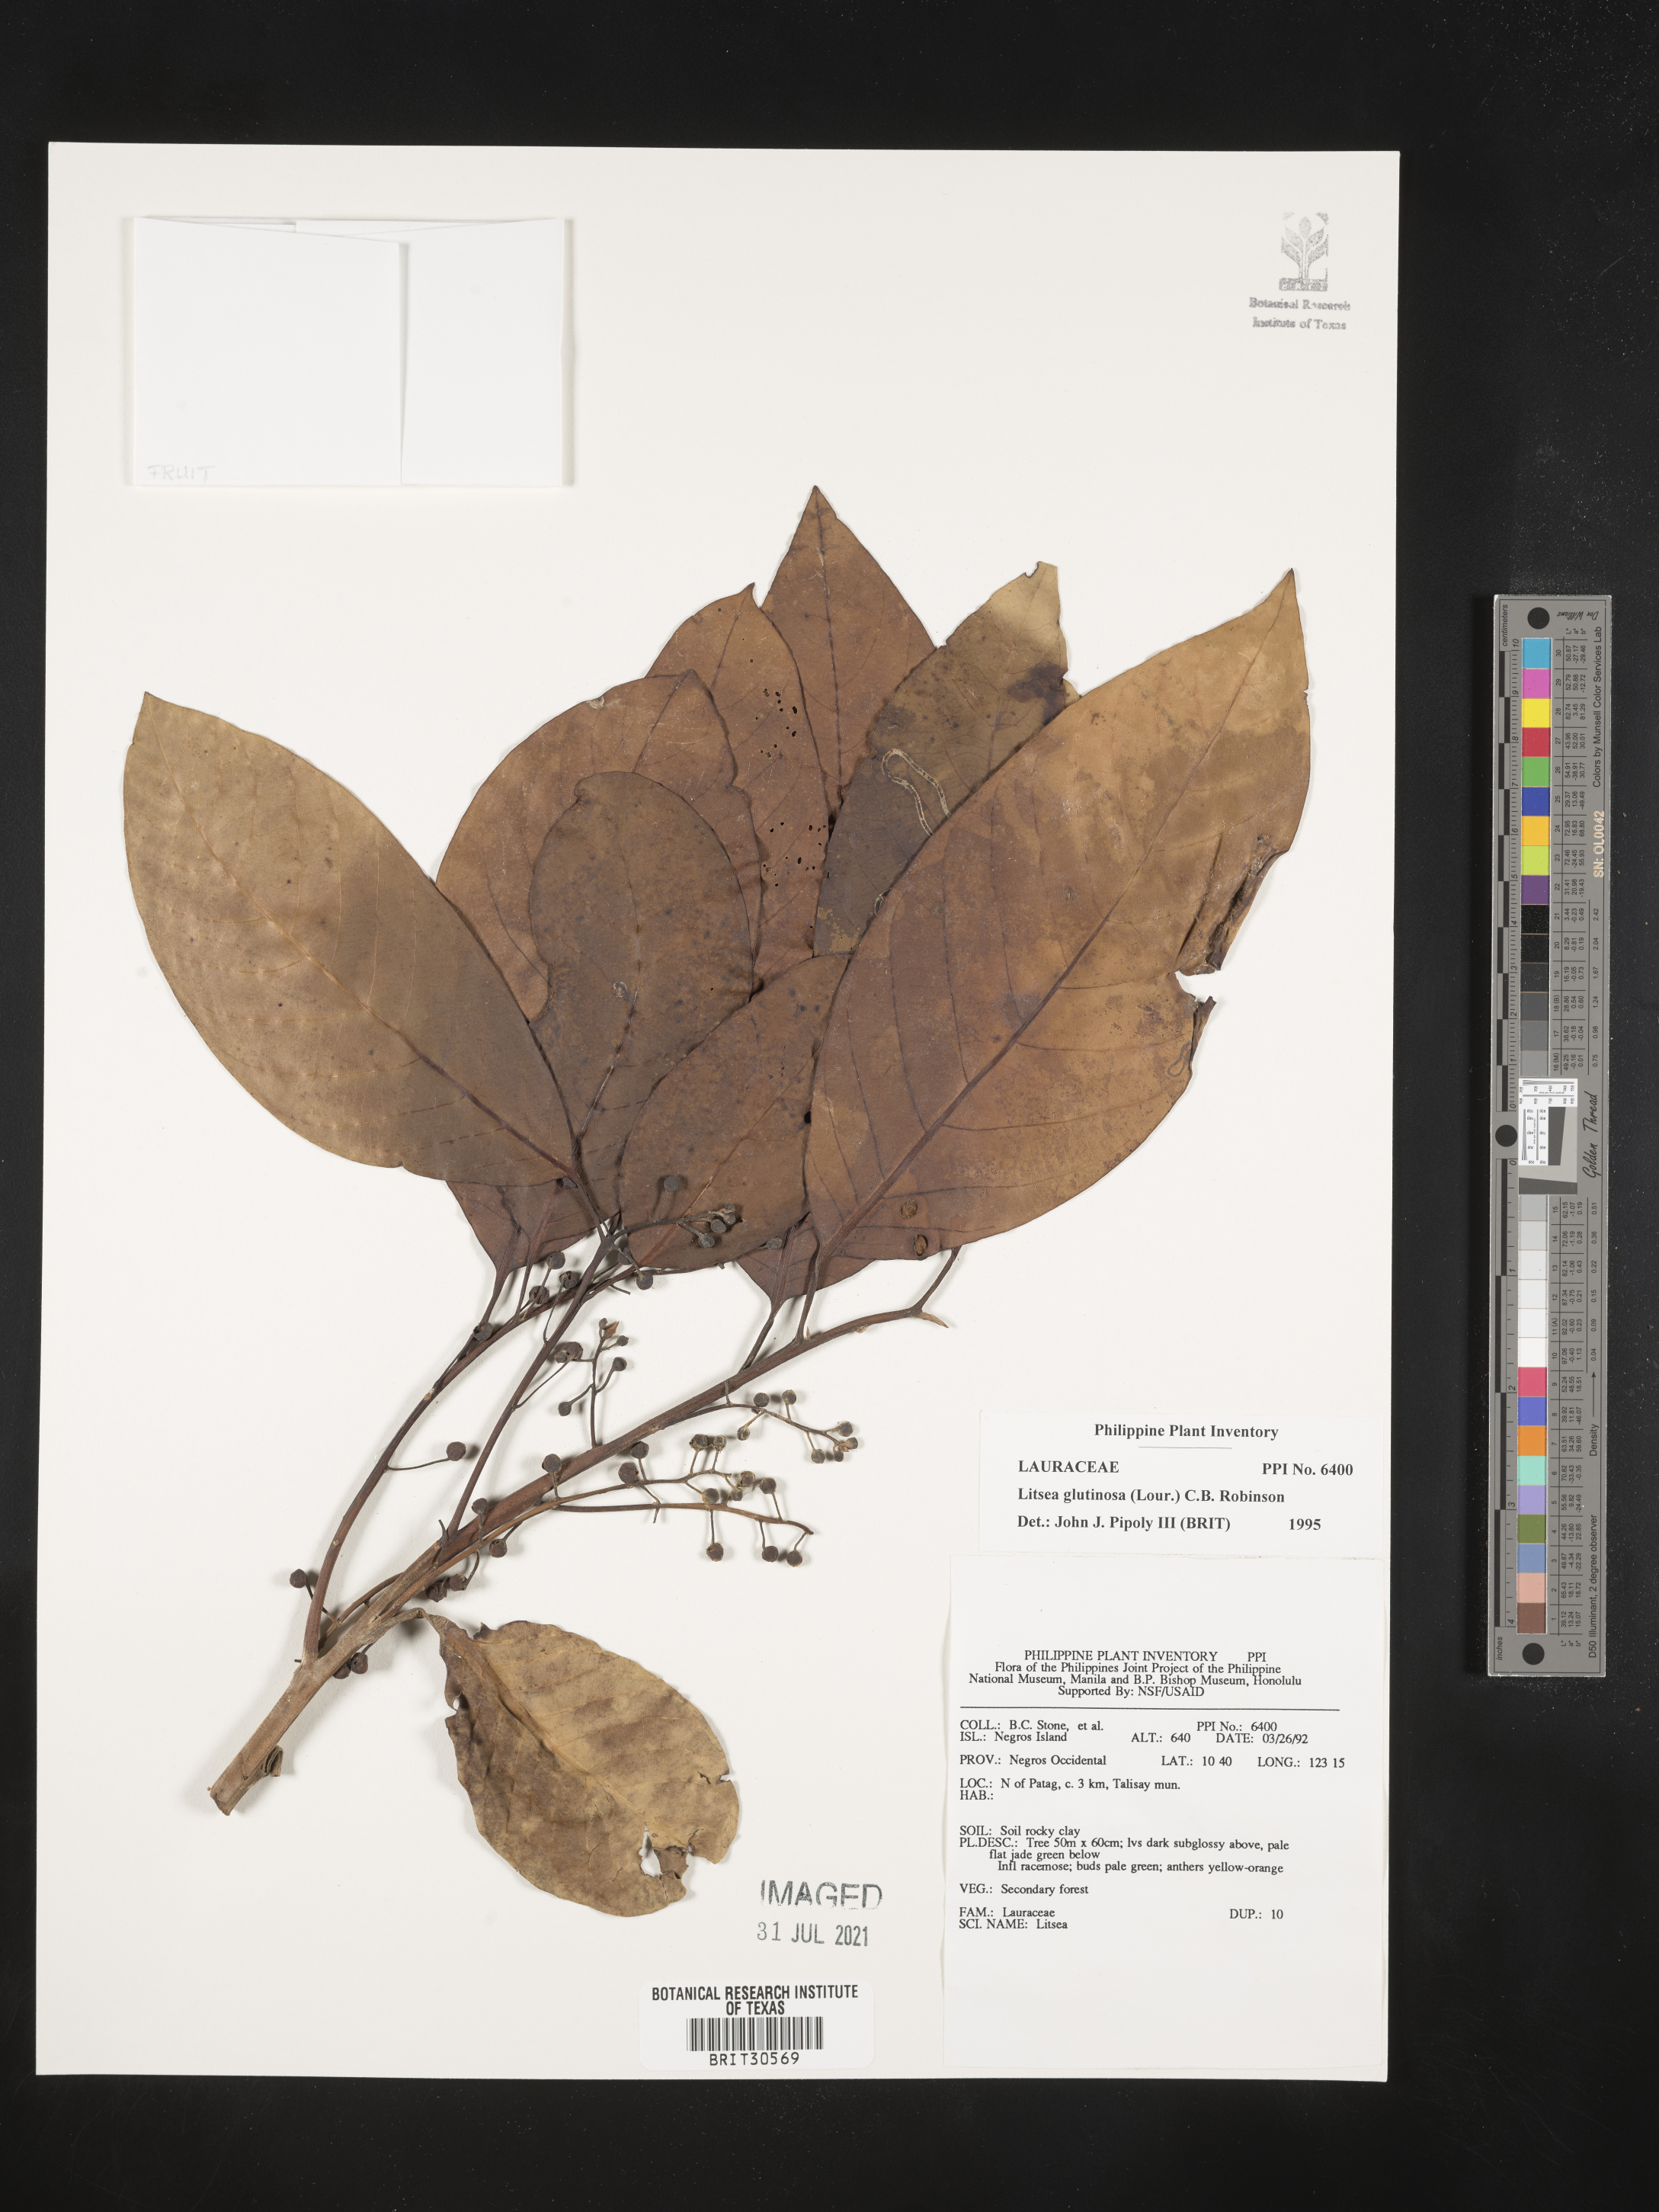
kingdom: Plantae
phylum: Tracheophyta
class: Magnoliopsida
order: Laurales
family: Lauraceae
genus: Litsea
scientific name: Litsea glutinosa
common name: Indian-laurel
